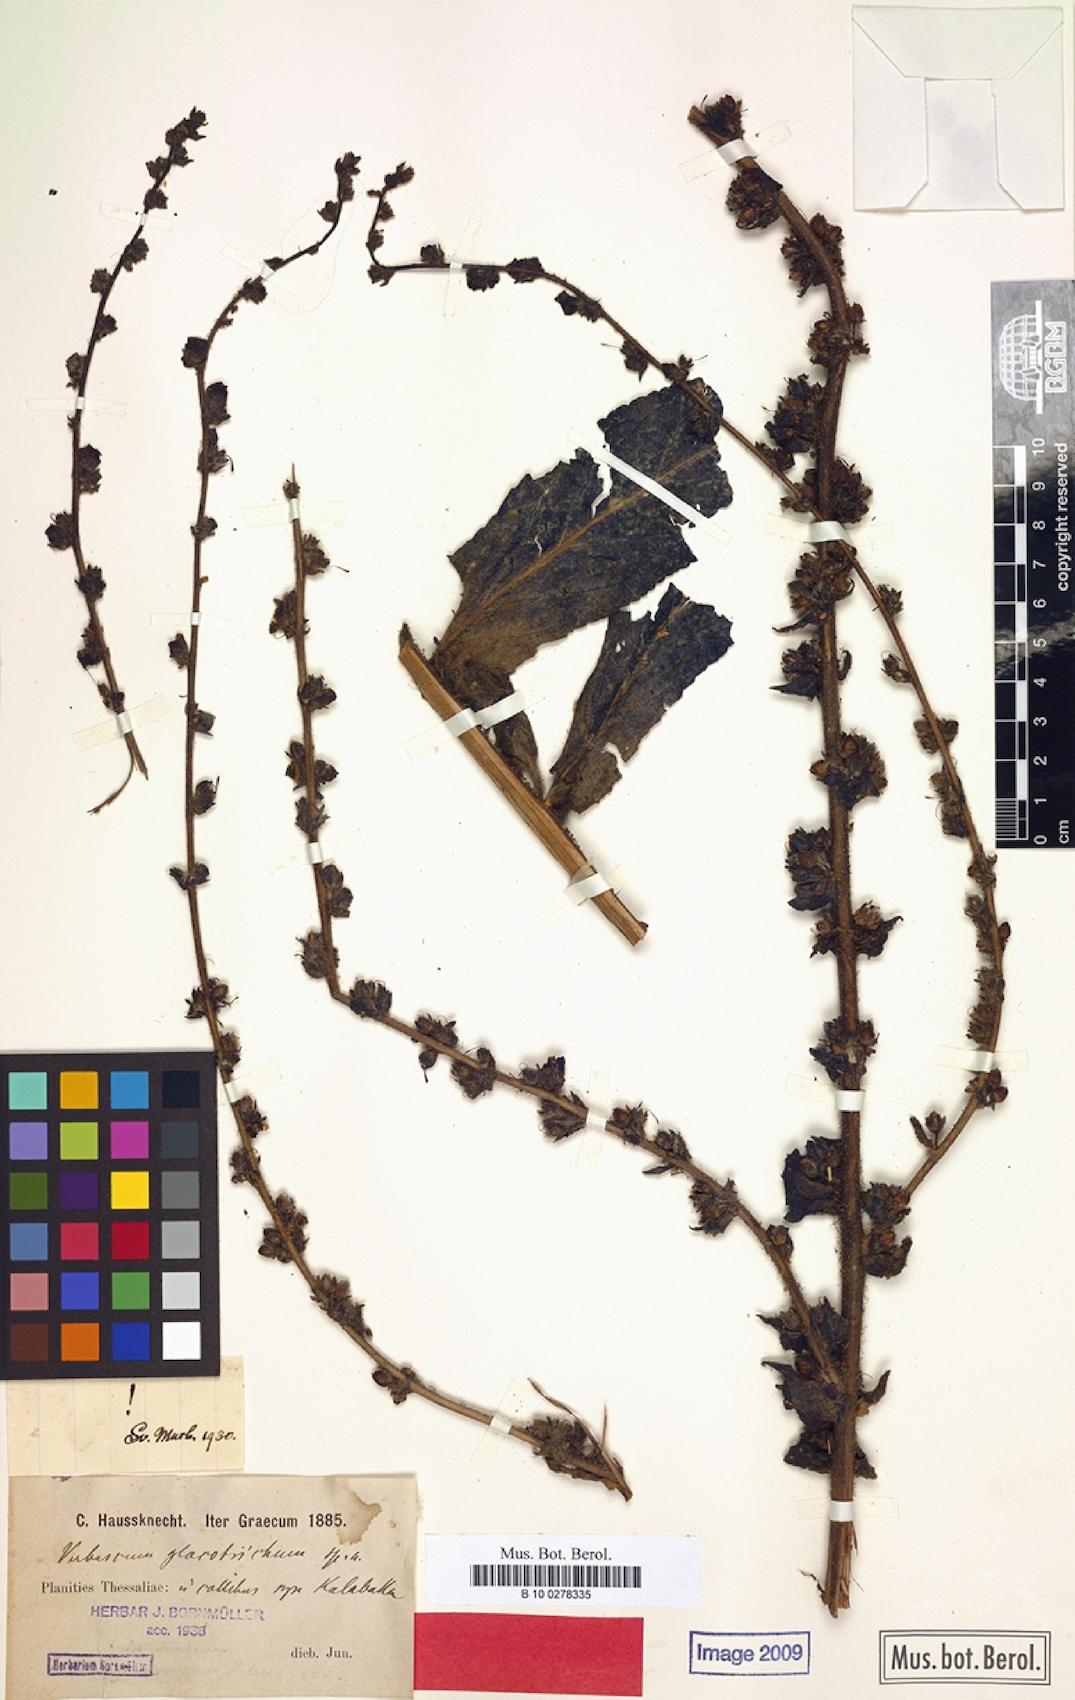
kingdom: Plantae
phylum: Tracheophyta
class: Magnoliopsida
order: Lamiales
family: Scrophulariaceae
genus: Verbascum
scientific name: Verbascum gloeotrichum
